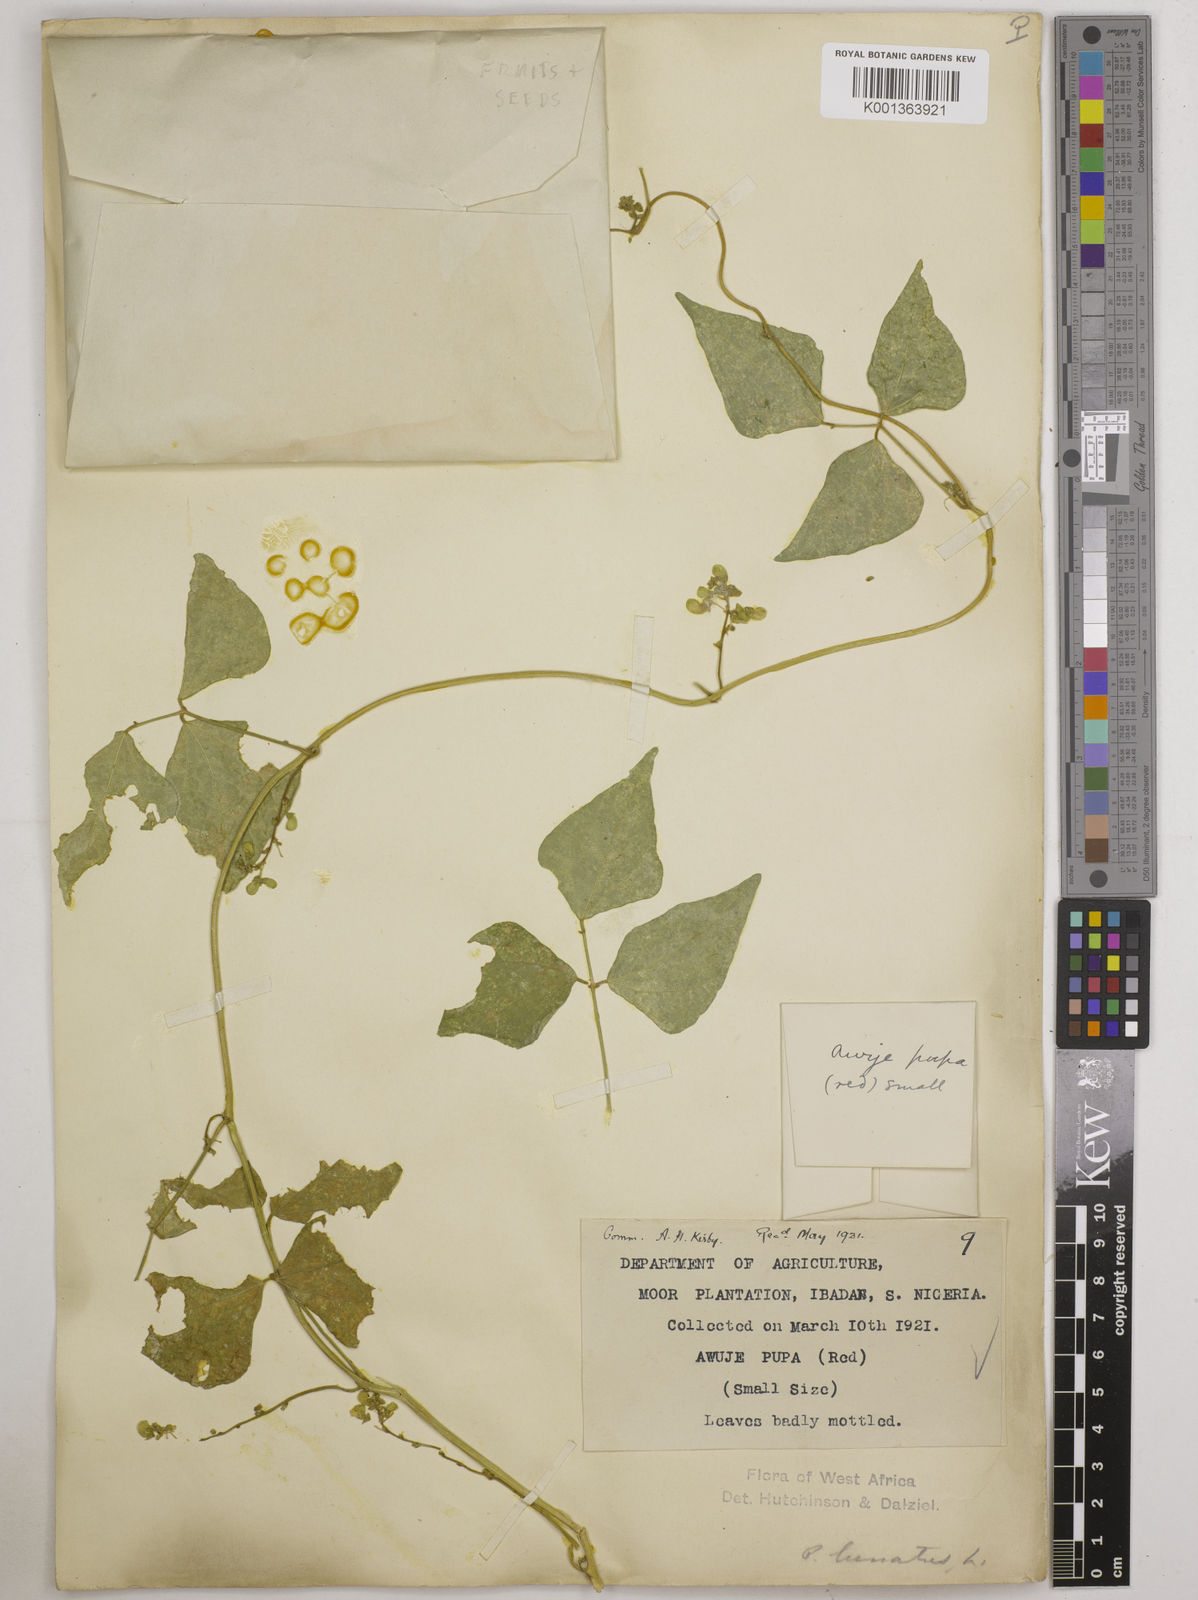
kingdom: Plantae
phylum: Tracheophyta
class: Magnoliopsida
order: Fabales
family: Fabaceae
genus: Phaseolus
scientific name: Phaseolus lunatus
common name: Sieva bean
